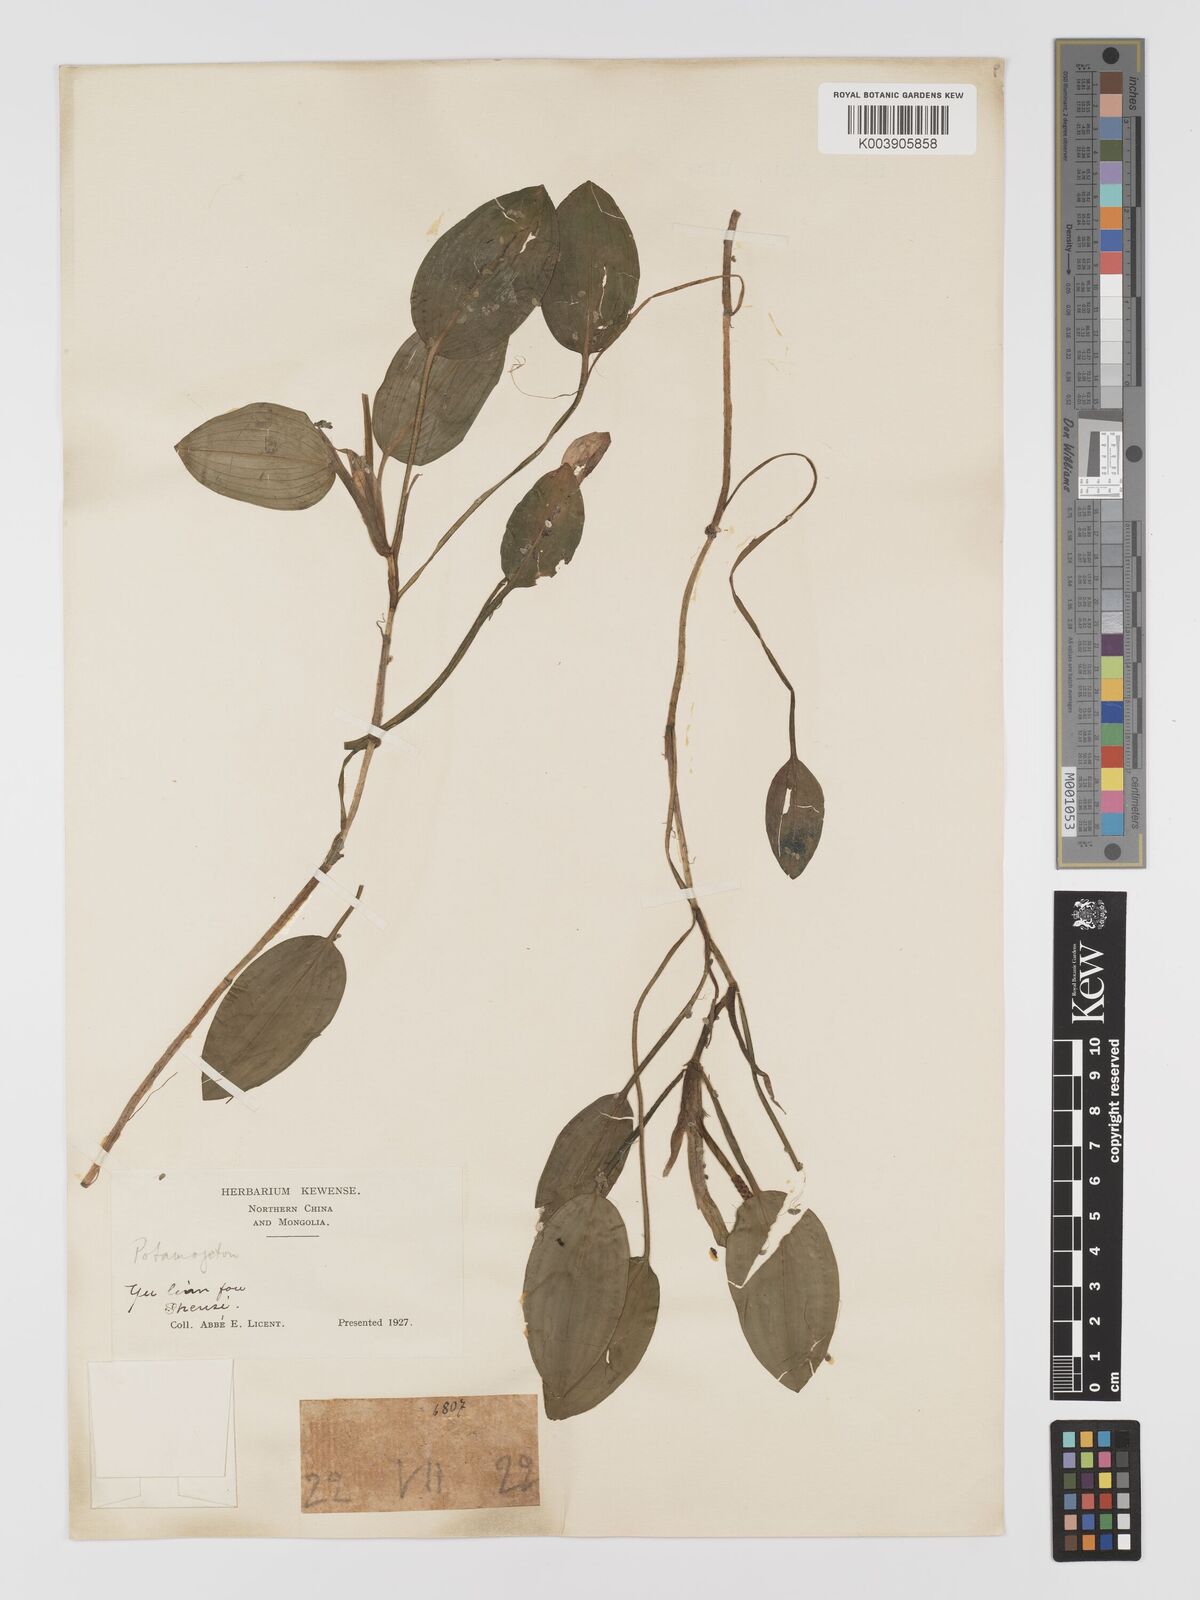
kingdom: Plantae
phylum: Tracheophyta
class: Liliopsida
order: Alismatales
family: Potamogetonaceae
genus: Potamogeton
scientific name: Potamogeton nodosus
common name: Loddon pondweed
